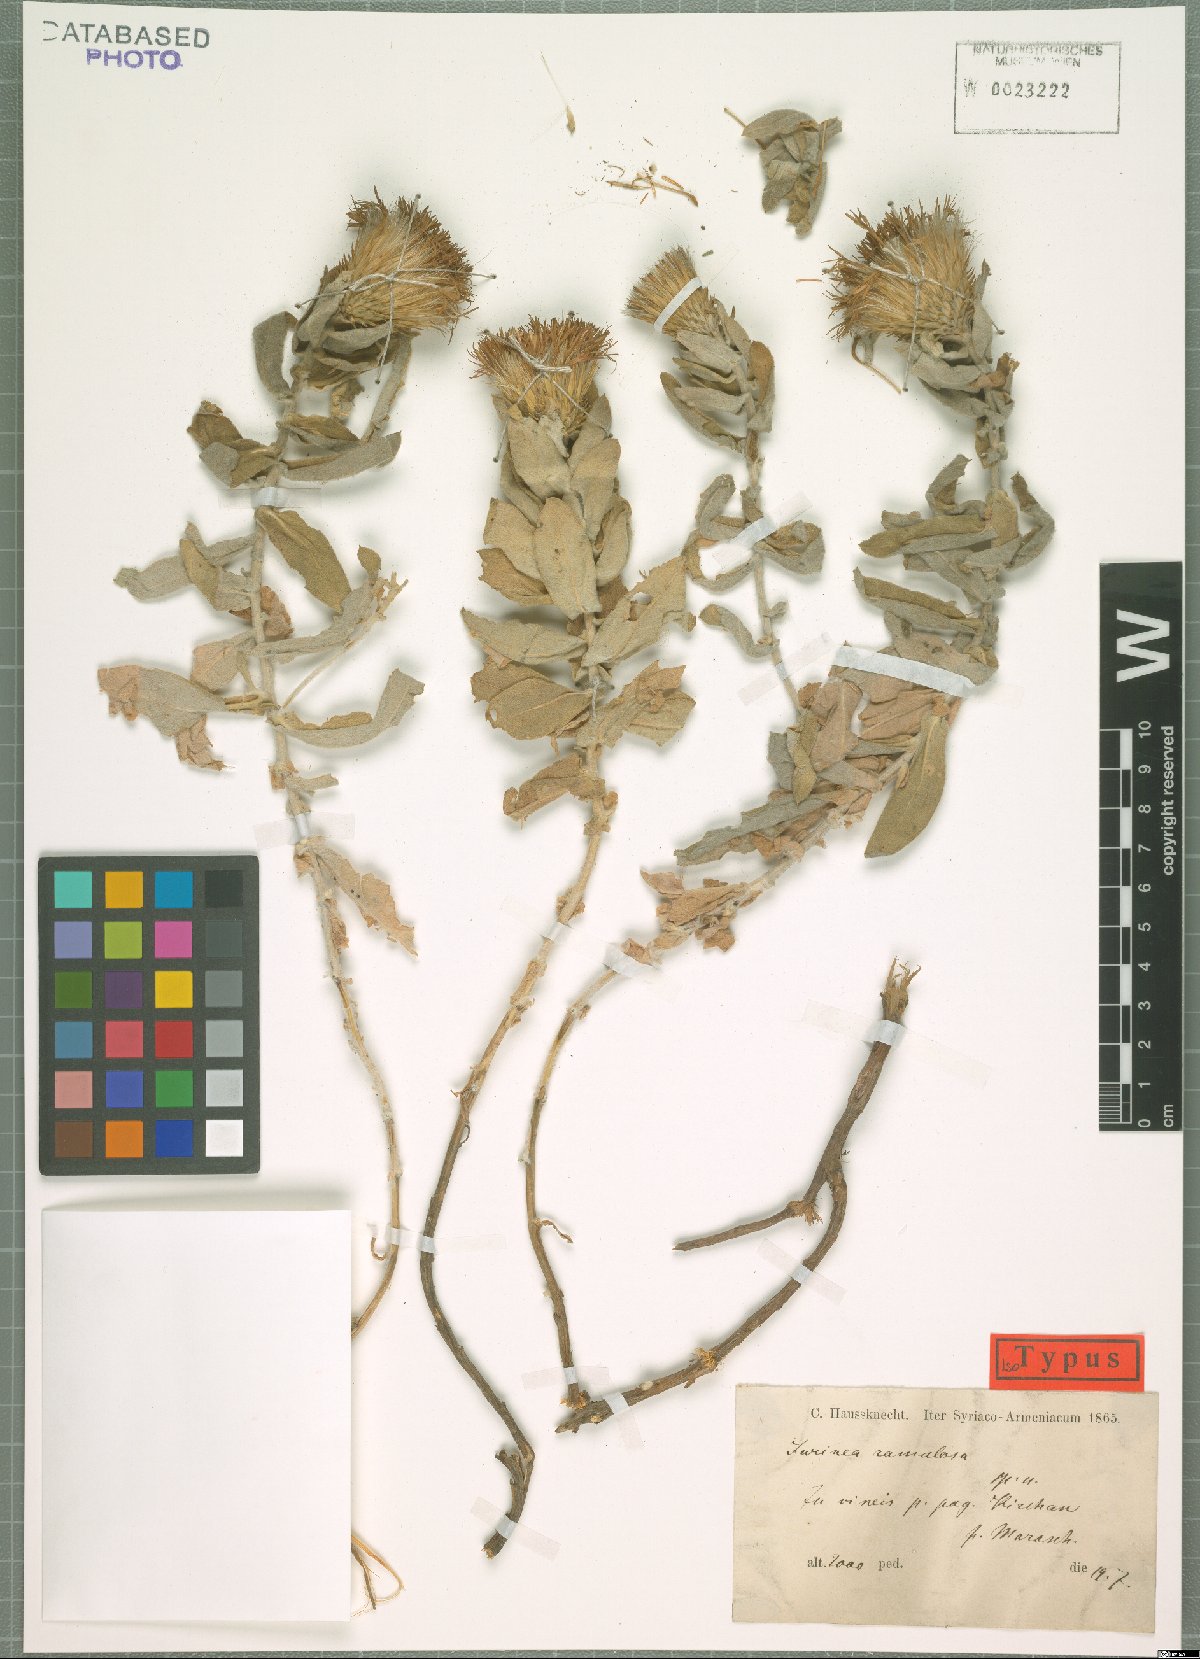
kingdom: Plantae
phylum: Tracheophyta
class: Magnoliopsida
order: Asterales
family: Asteraceae
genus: Jurinea
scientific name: Jurinea ramulosa
